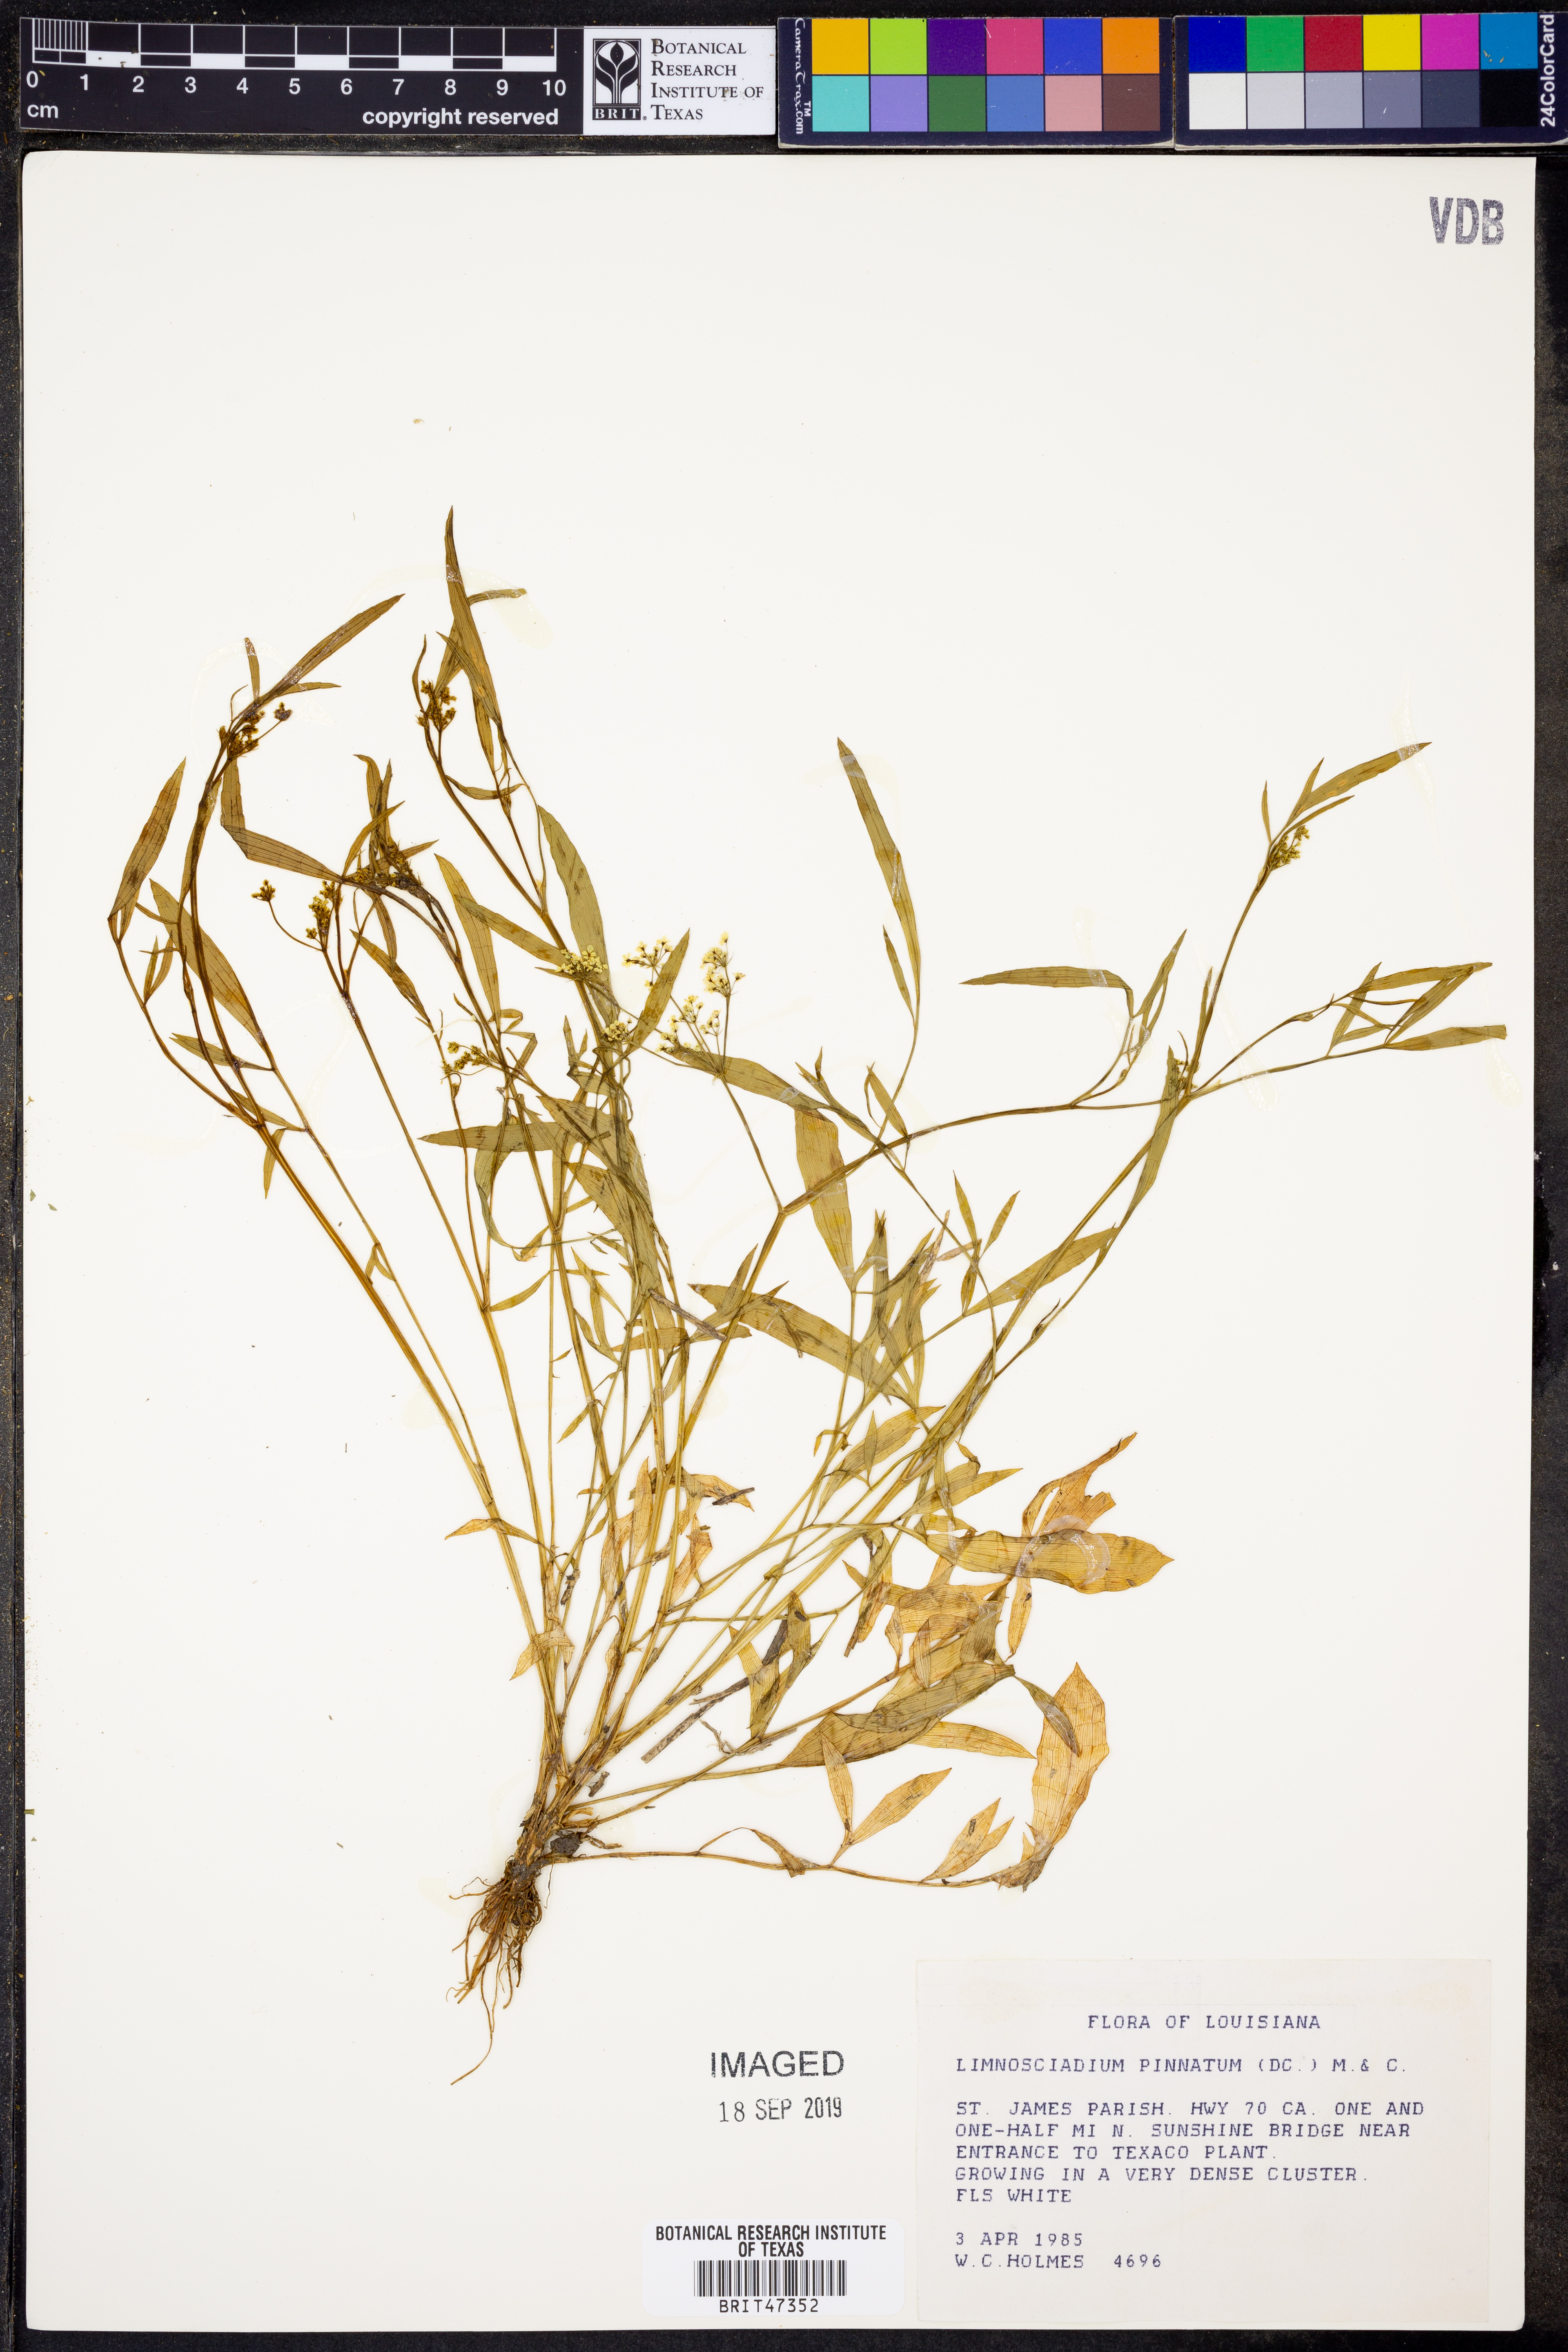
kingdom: Plantae
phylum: Tracheophyta
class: Magnoliopsida
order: Apiales
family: Apiaceae
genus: Limnosciadium
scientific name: Limnosciadium pinnatum
